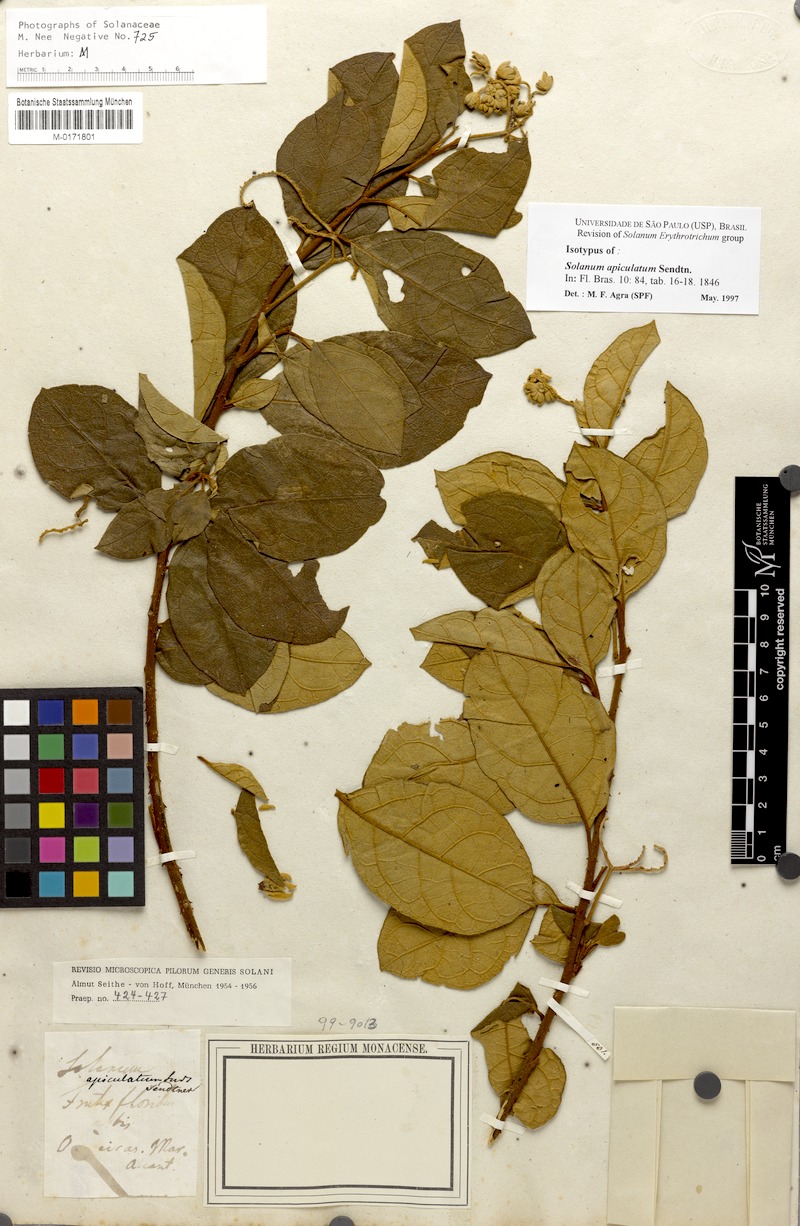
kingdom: Plantae
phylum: Tracheophyta
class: Magnoliopsida
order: Solanales
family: Solanaceae
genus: Solanum
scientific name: Solanum apiculatum
